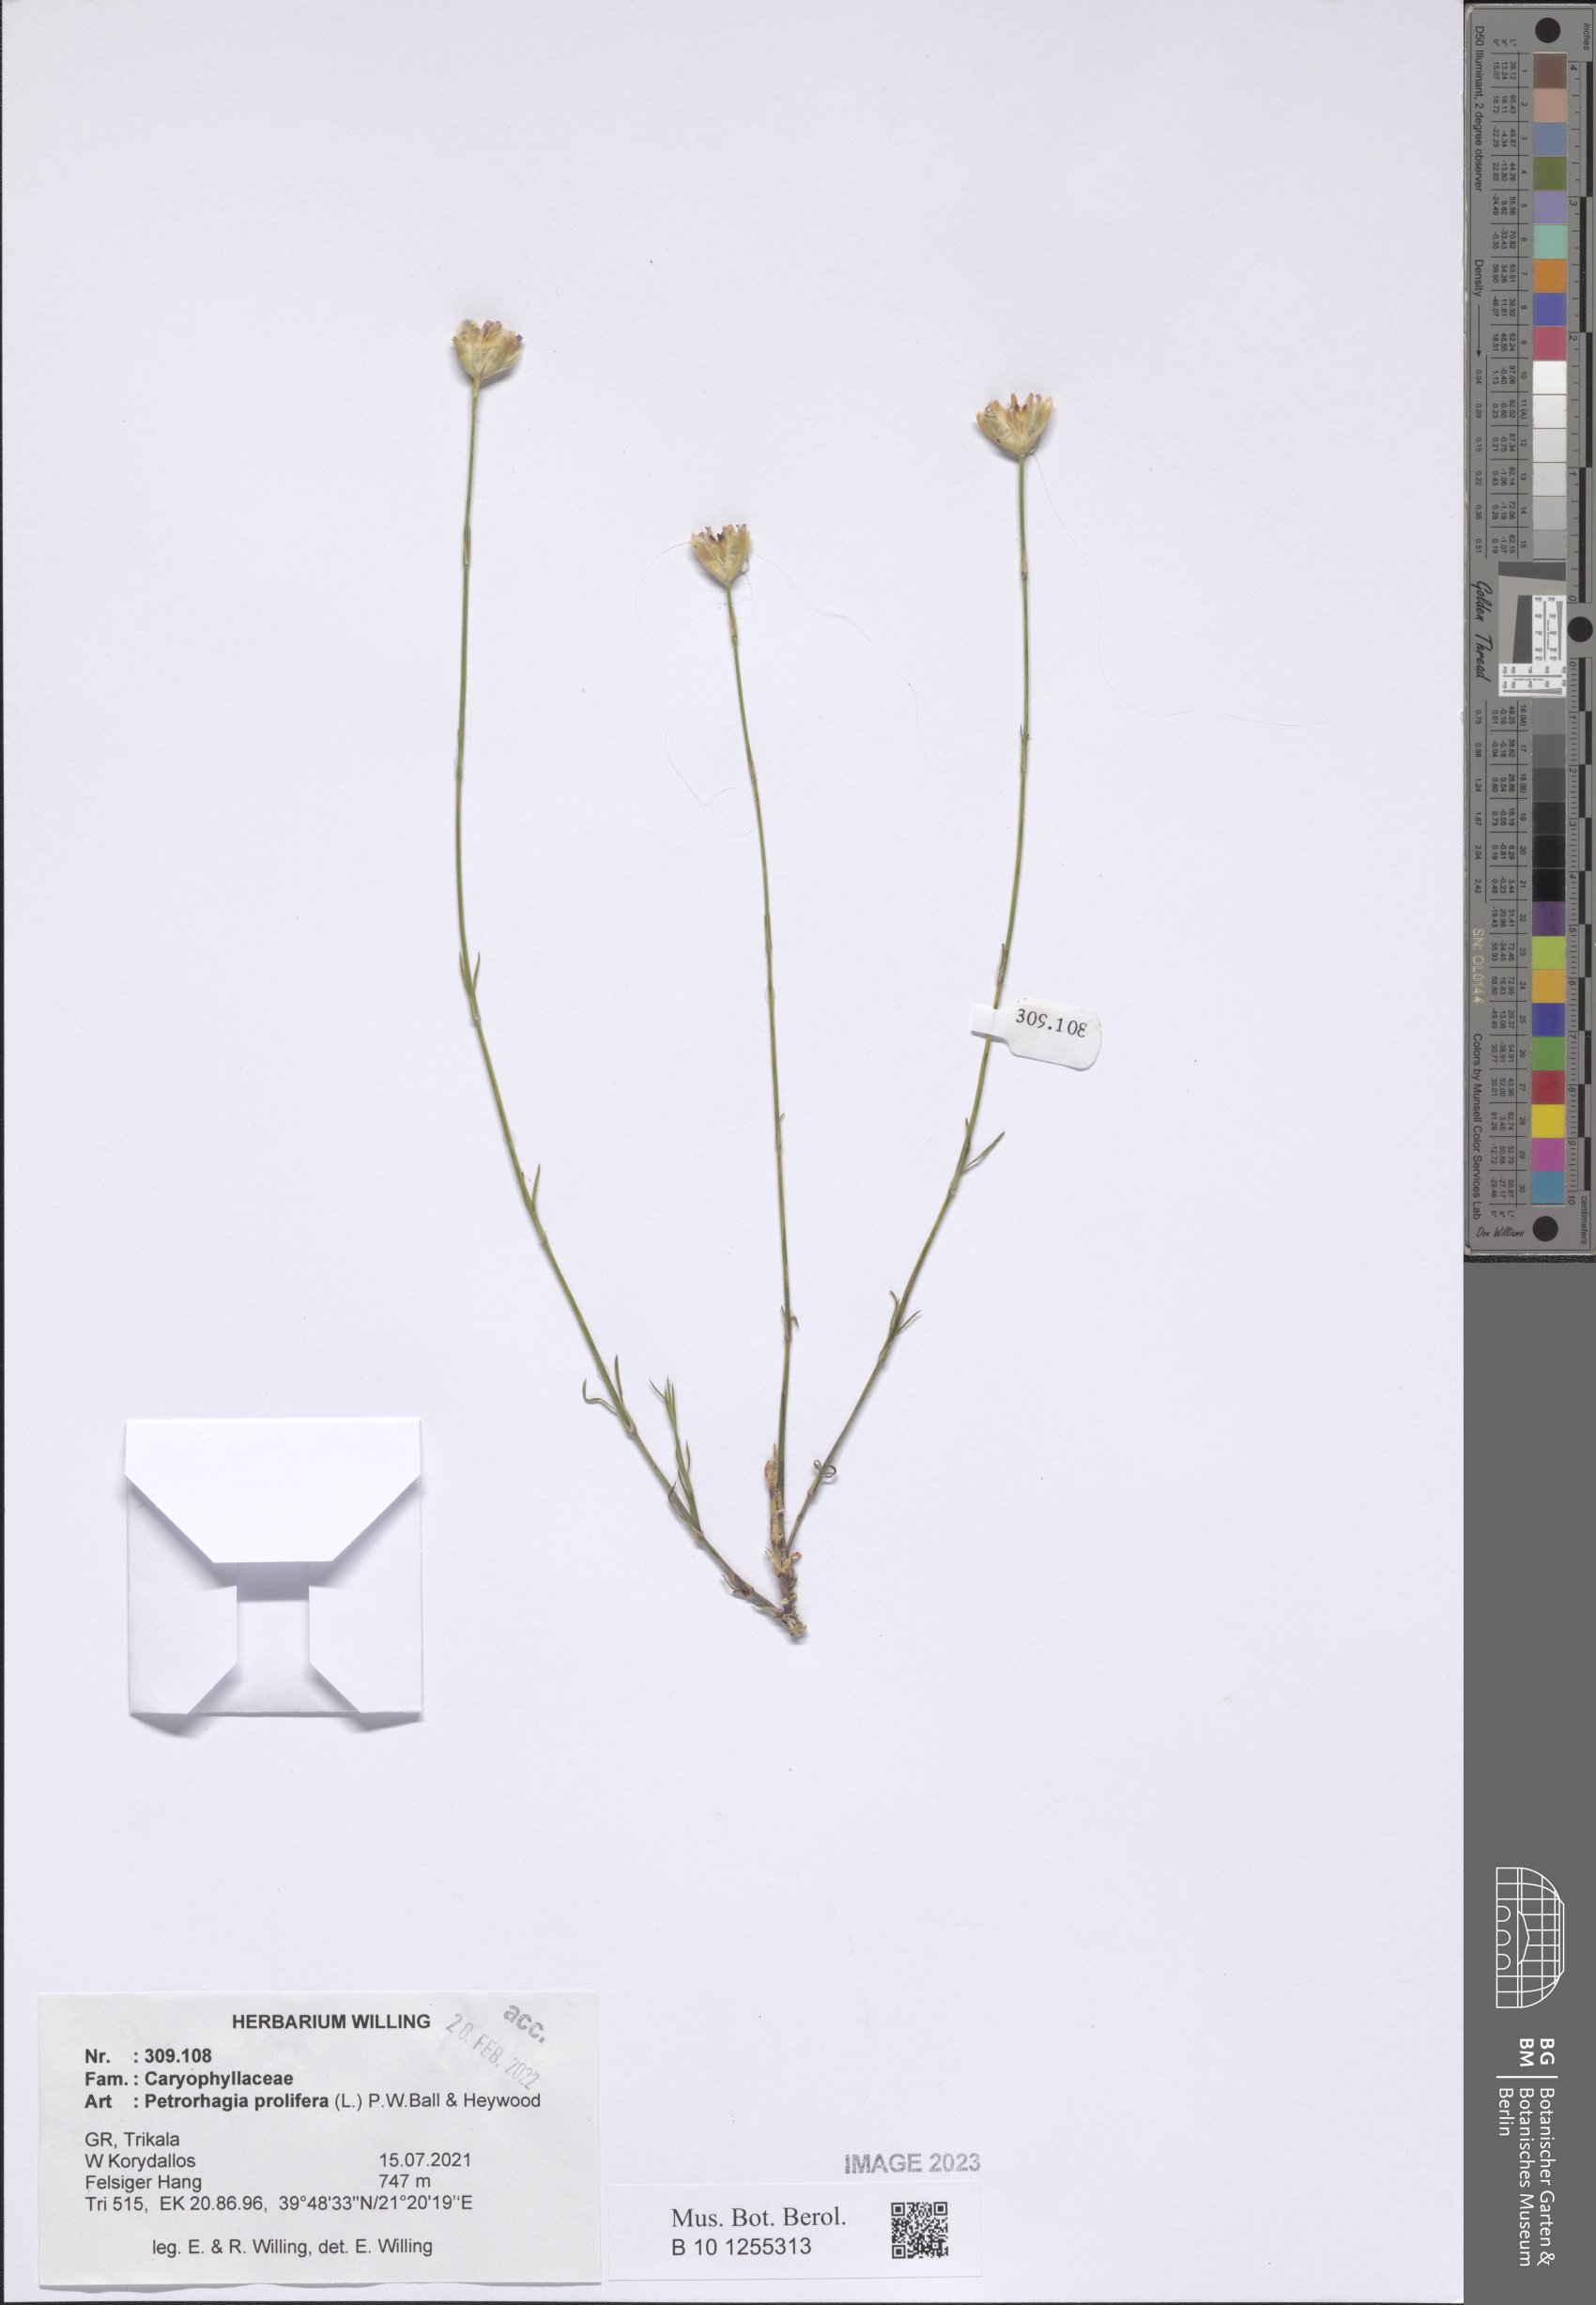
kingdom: Plantae
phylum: Tracheophyta
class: Magnoliopsida
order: Caryophyllales
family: Caryophyllaceae
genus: Petrorhagia
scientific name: Petrorhagia prolifera
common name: Proliferous pink
